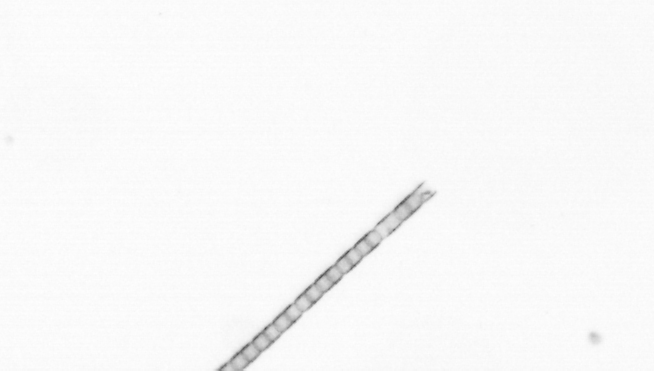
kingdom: Chromista
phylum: Ochrophyta
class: Bacillariophyceae
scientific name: Bacillariophyceae
